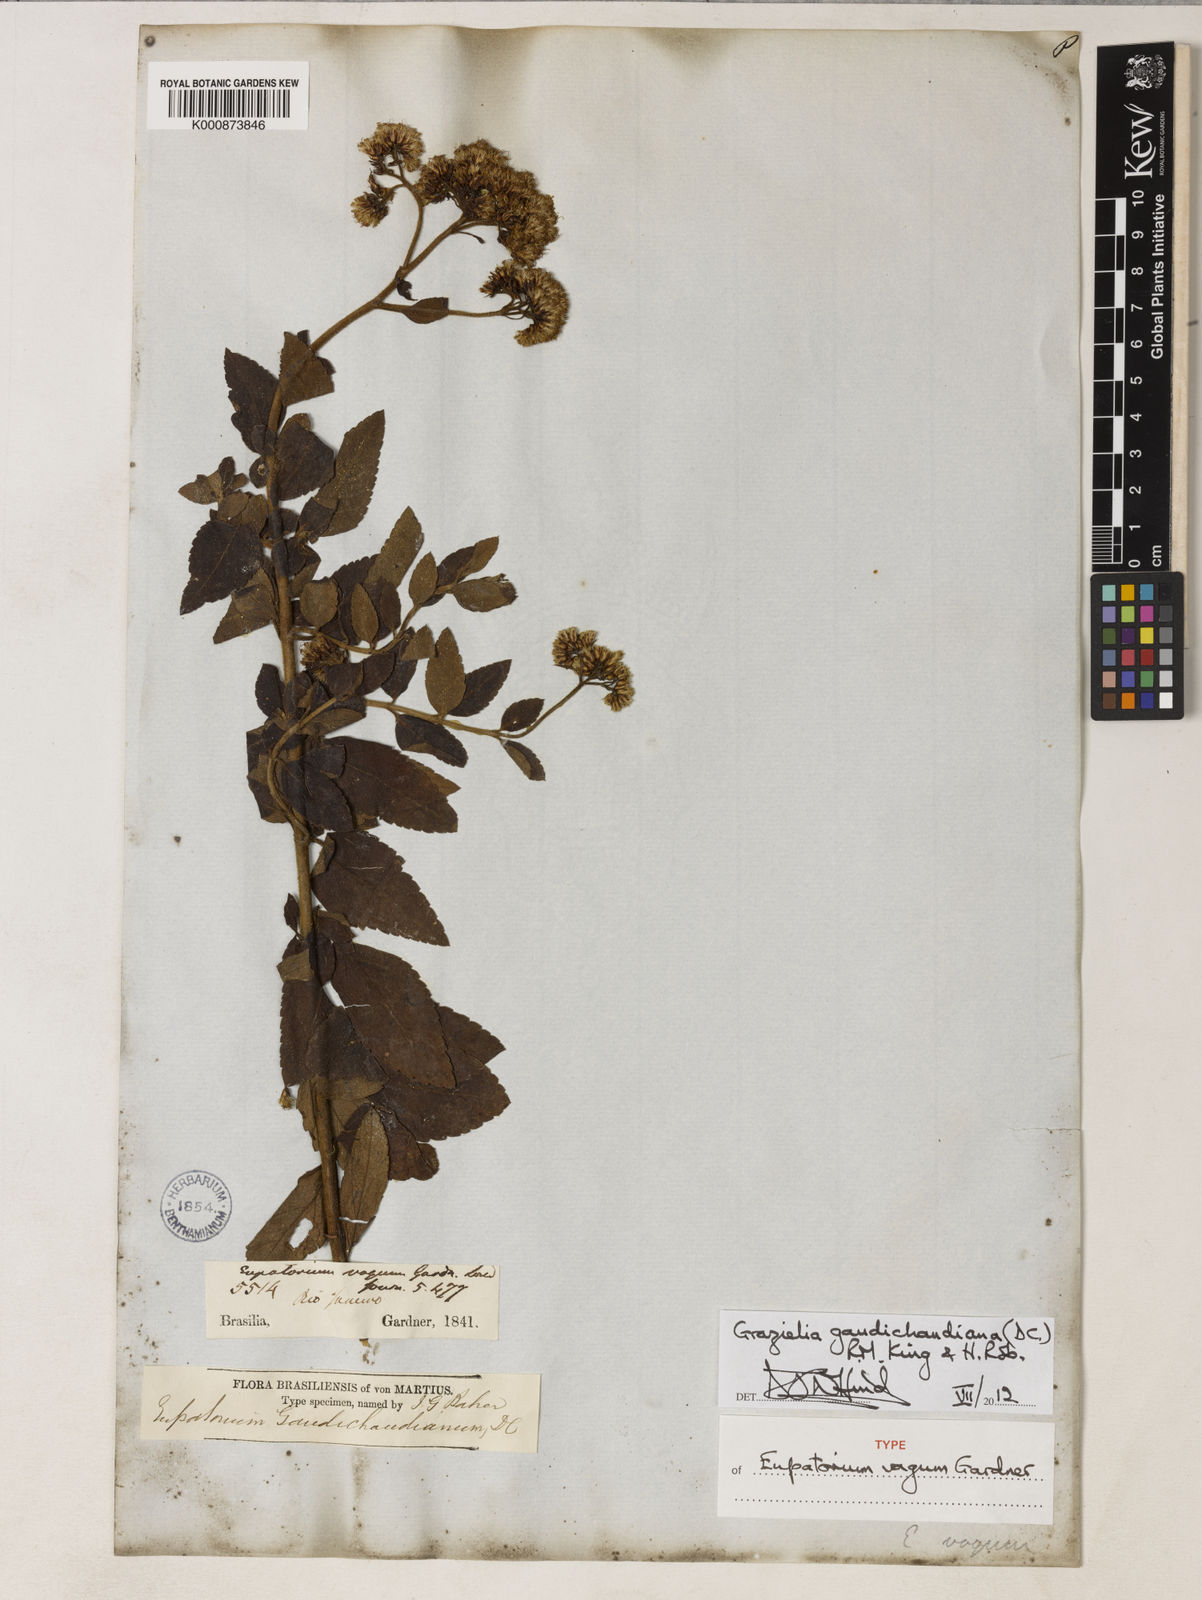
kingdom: Plantae
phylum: Tracheophyta
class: Magnoliopsida
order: Asterales
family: Asteraceae
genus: Grazielia
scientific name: Grazielia gaudichaudeana
